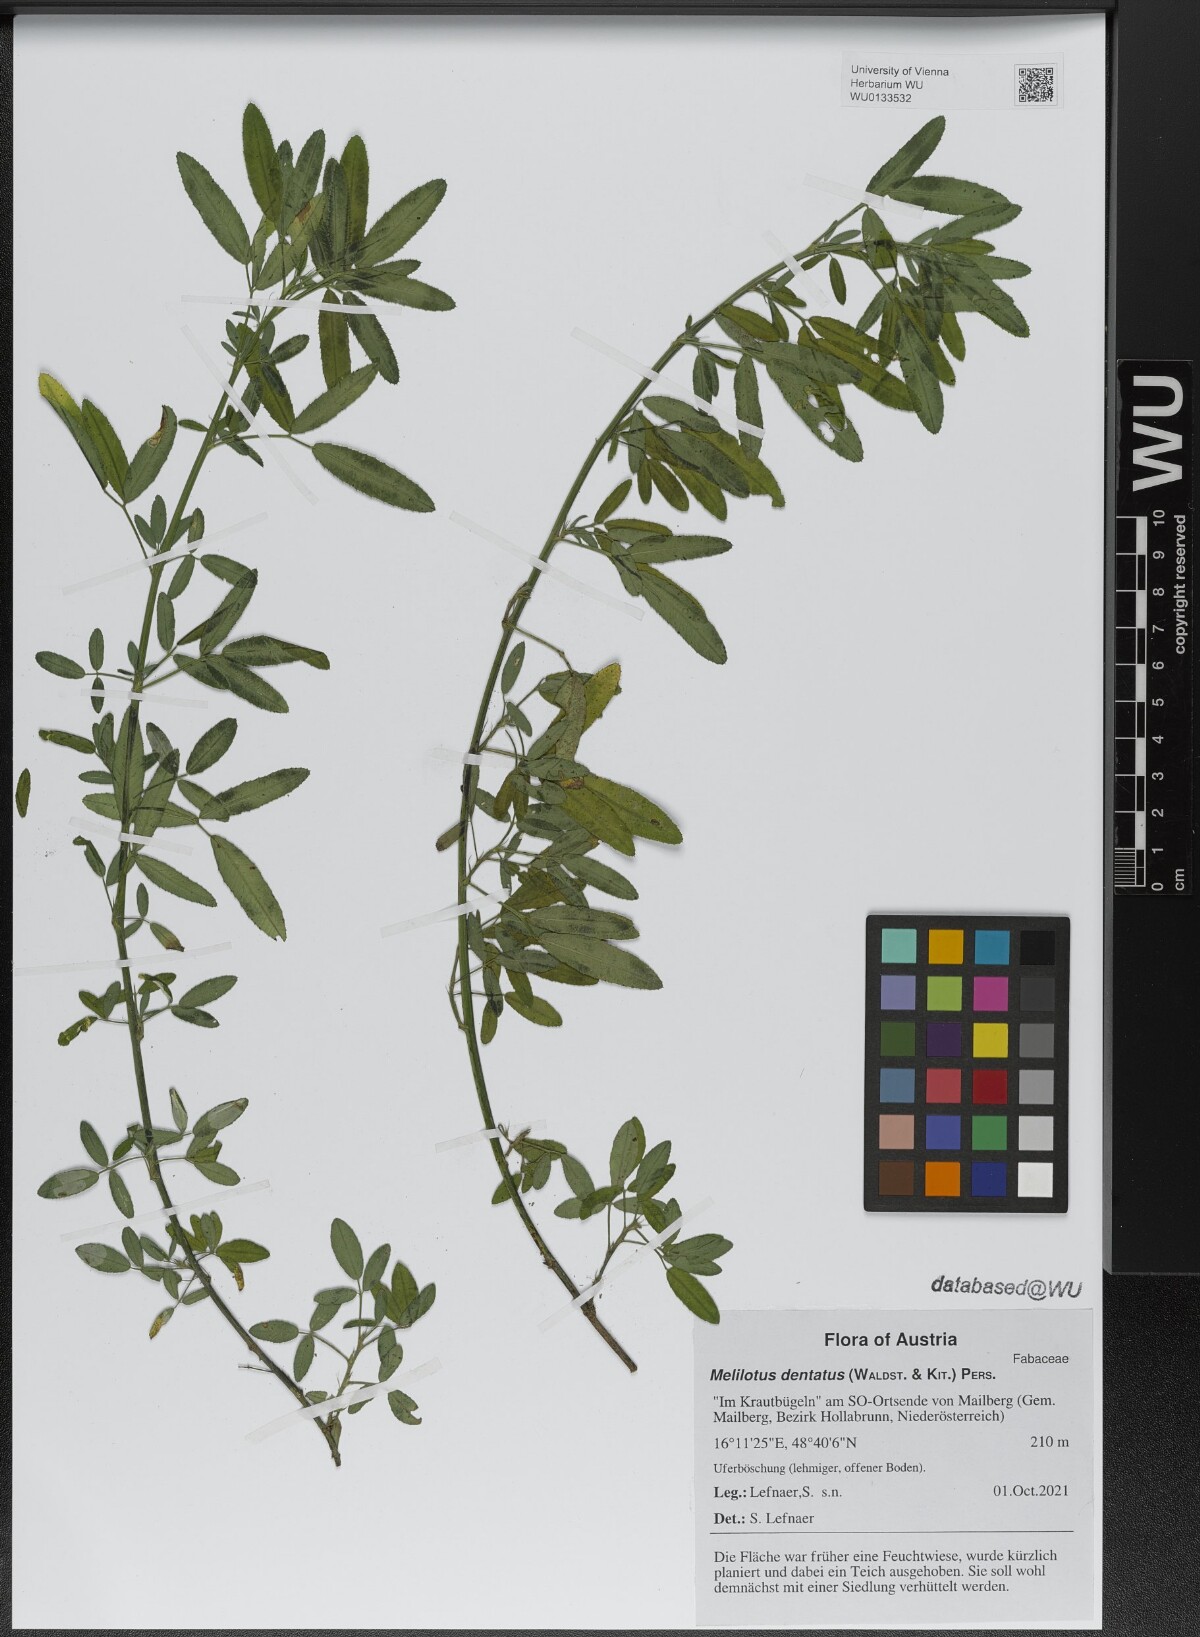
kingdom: Plantae
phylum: Tracheophyta
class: Magnoliopsida
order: Fabales
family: Fabaceae
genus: Melilotus
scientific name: Melilotus dentatus
